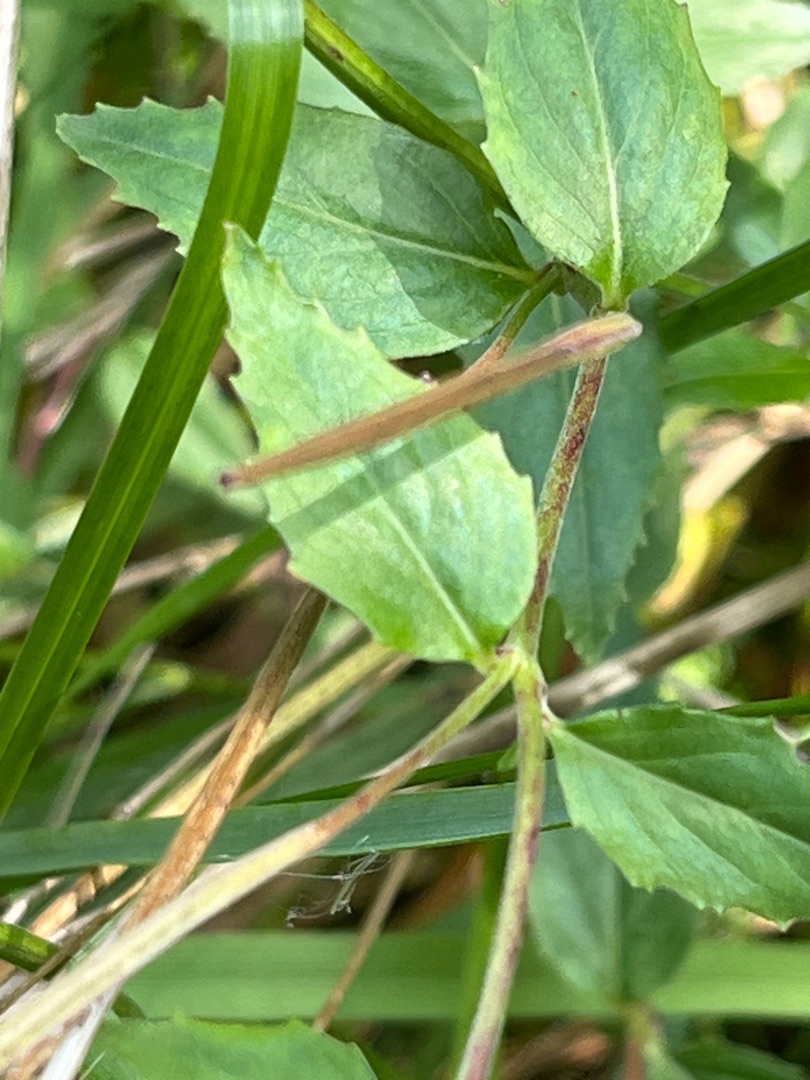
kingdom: Plantae
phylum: Tracheophyta
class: Magnoliopsida
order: Myrtales
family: Onagraceae
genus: Epilobium
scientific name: Epilobium montanum
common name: Glat dueurt
